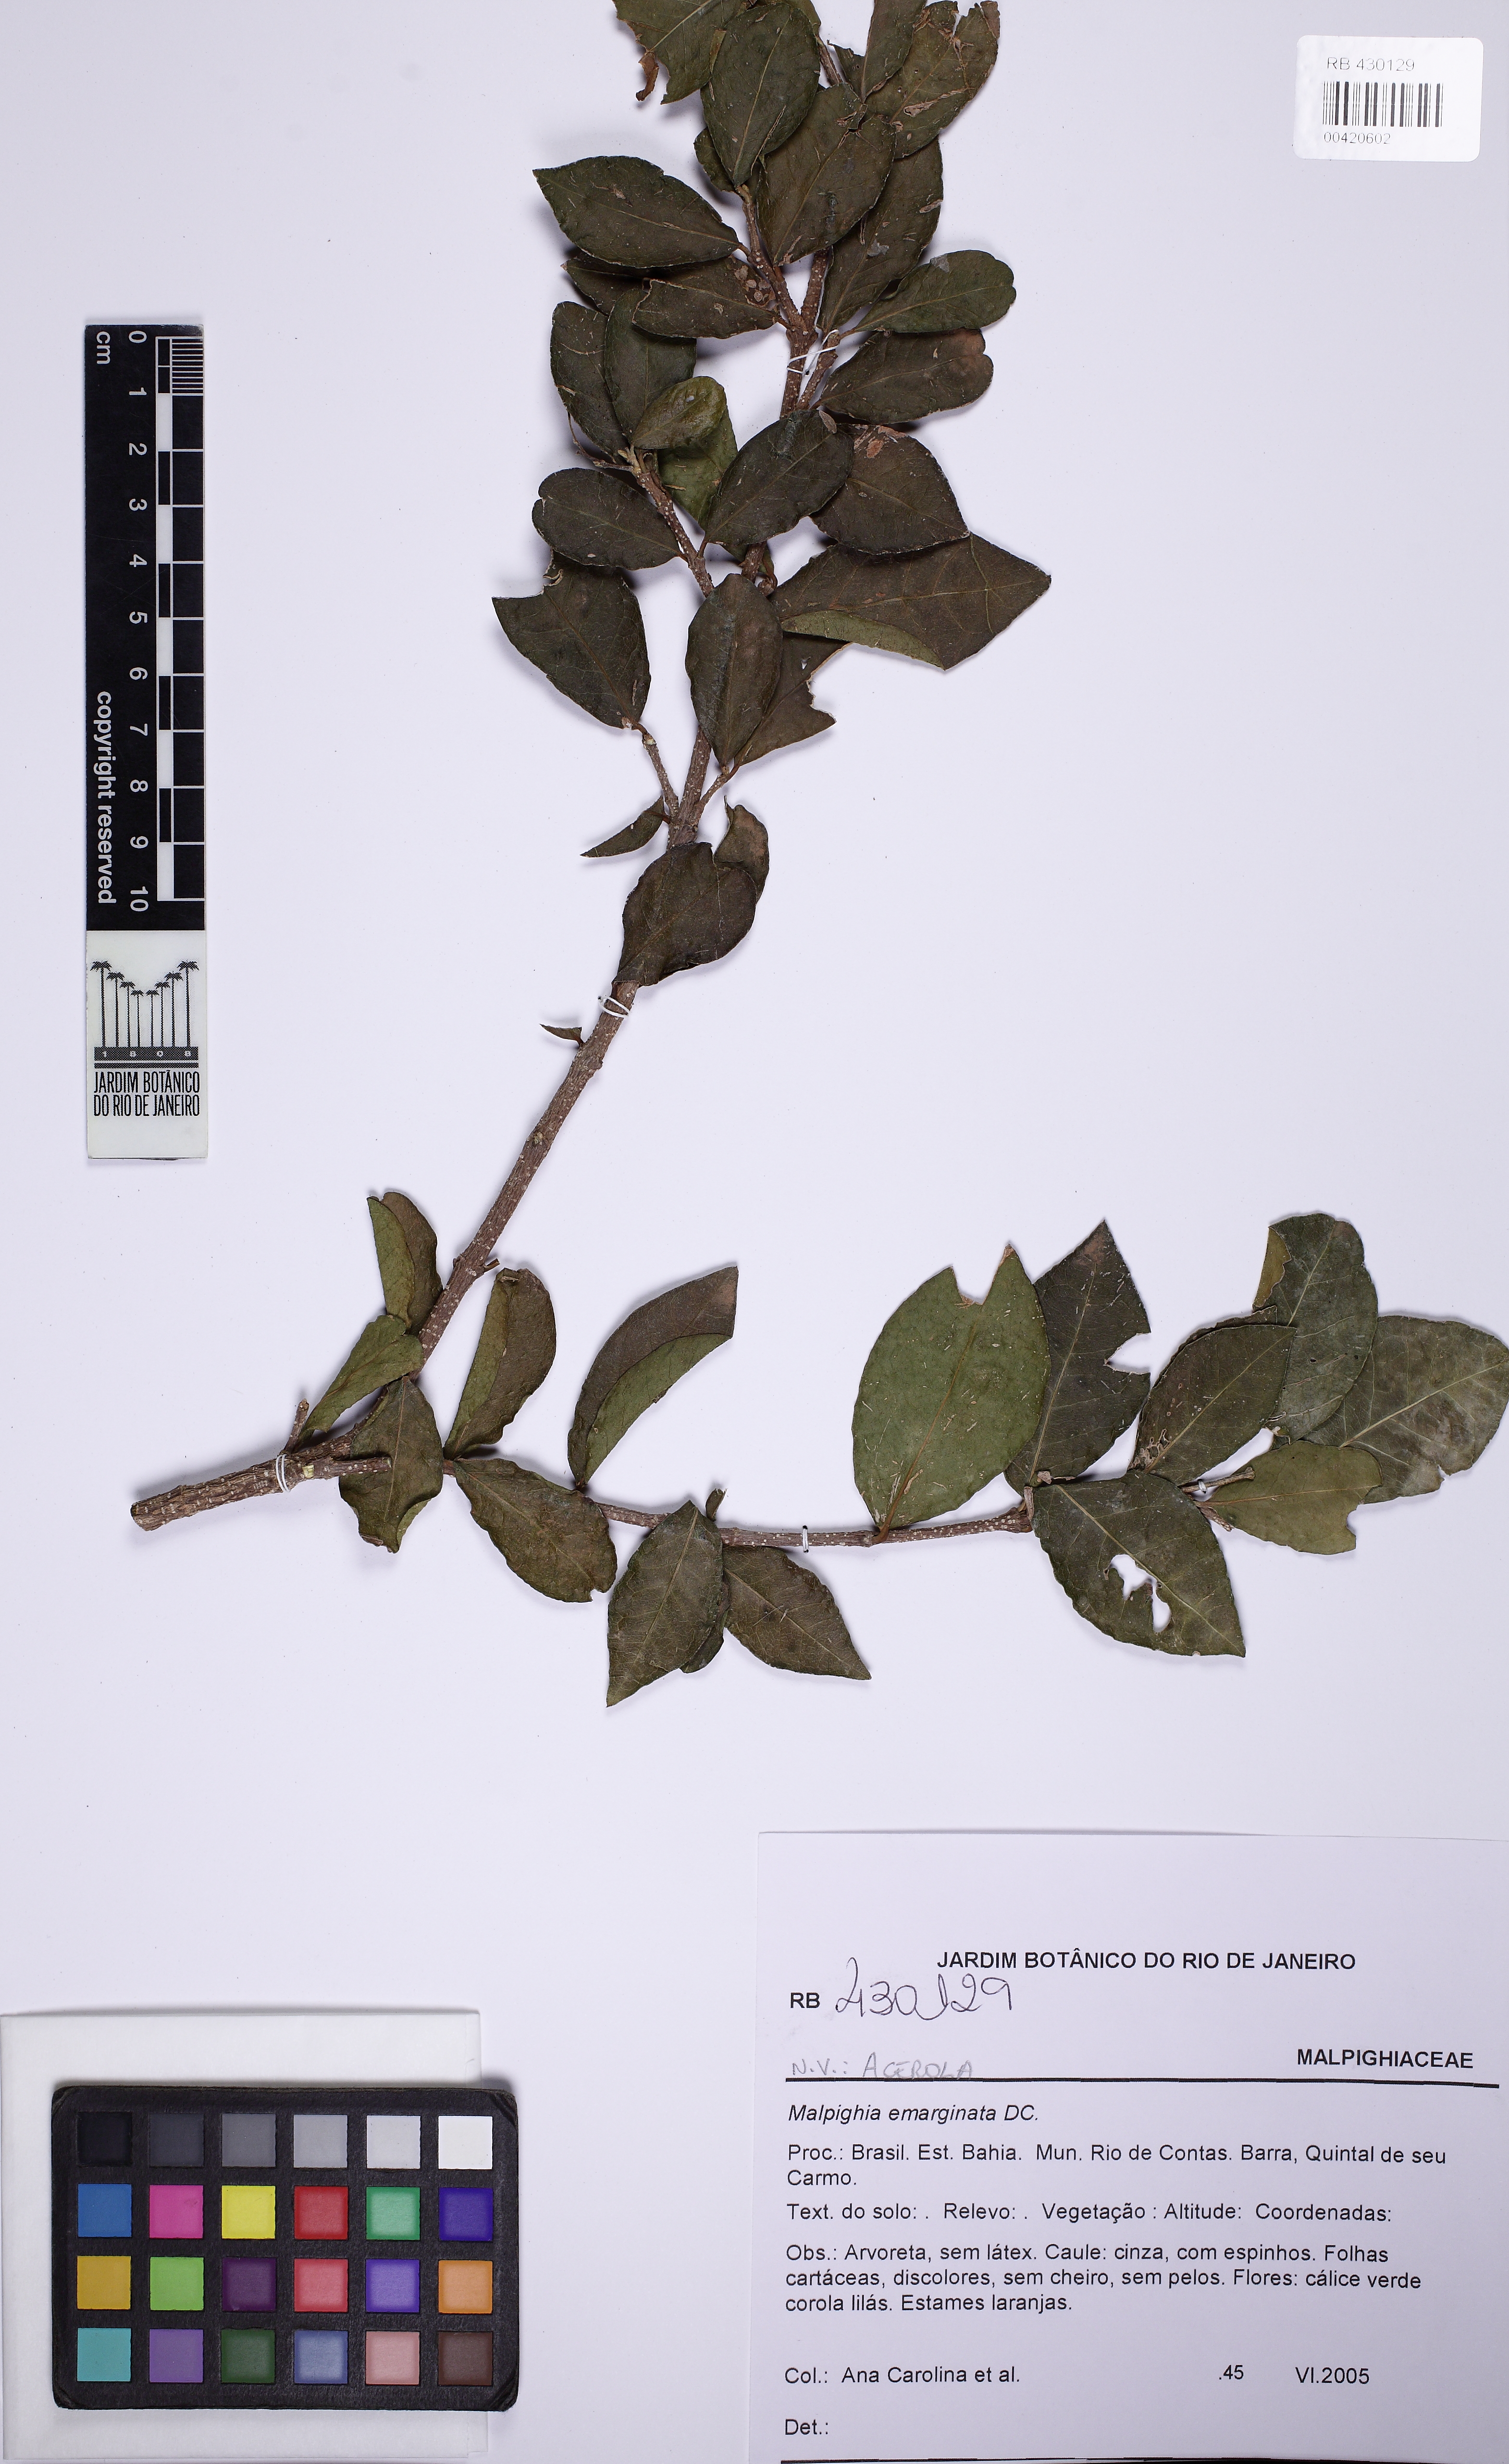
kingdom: Plantae
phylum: Tracheophyta
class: Magnoliopsida
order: Malpighiales
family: Malpighiaceae
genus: Malpighia
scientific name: Malpighia emarginata
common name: Barbados cherry
